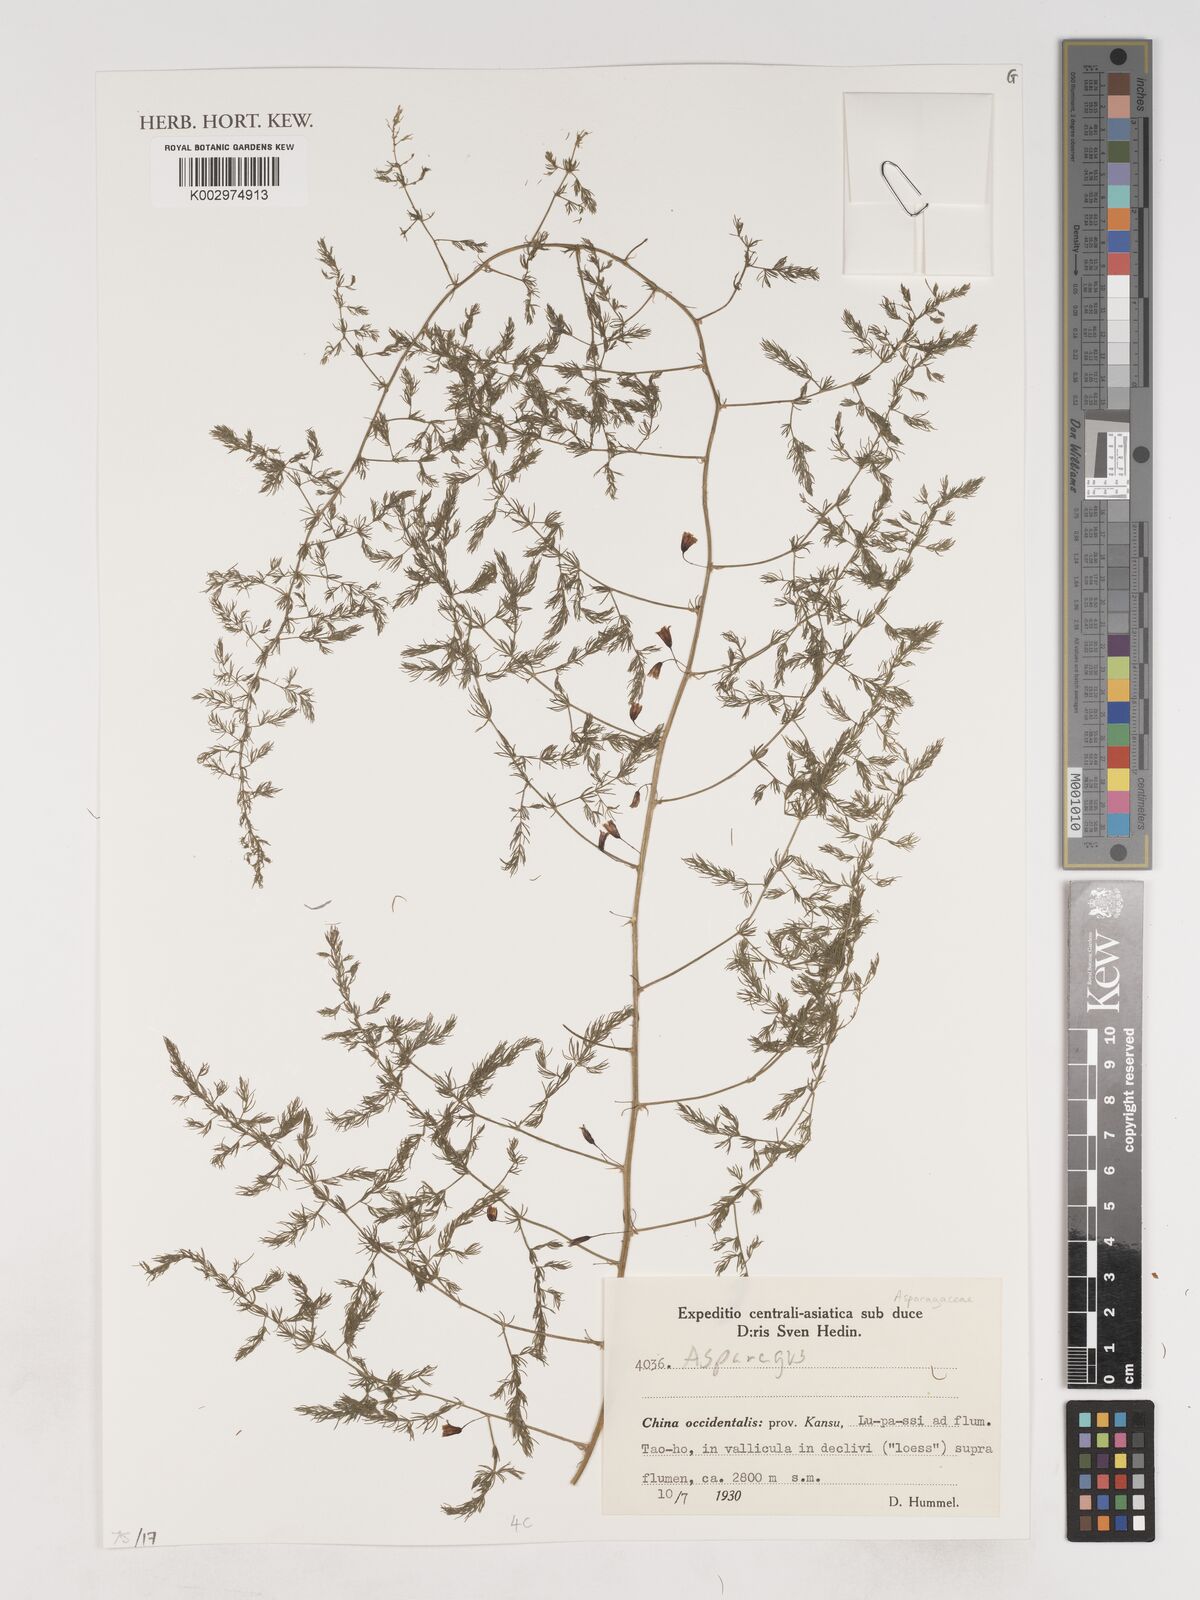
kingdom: Plantae
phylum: Tracheophyta
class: Liliopsida
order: Asparagales
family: Asparagaceae
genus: Asparagus
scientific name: Asparagus
